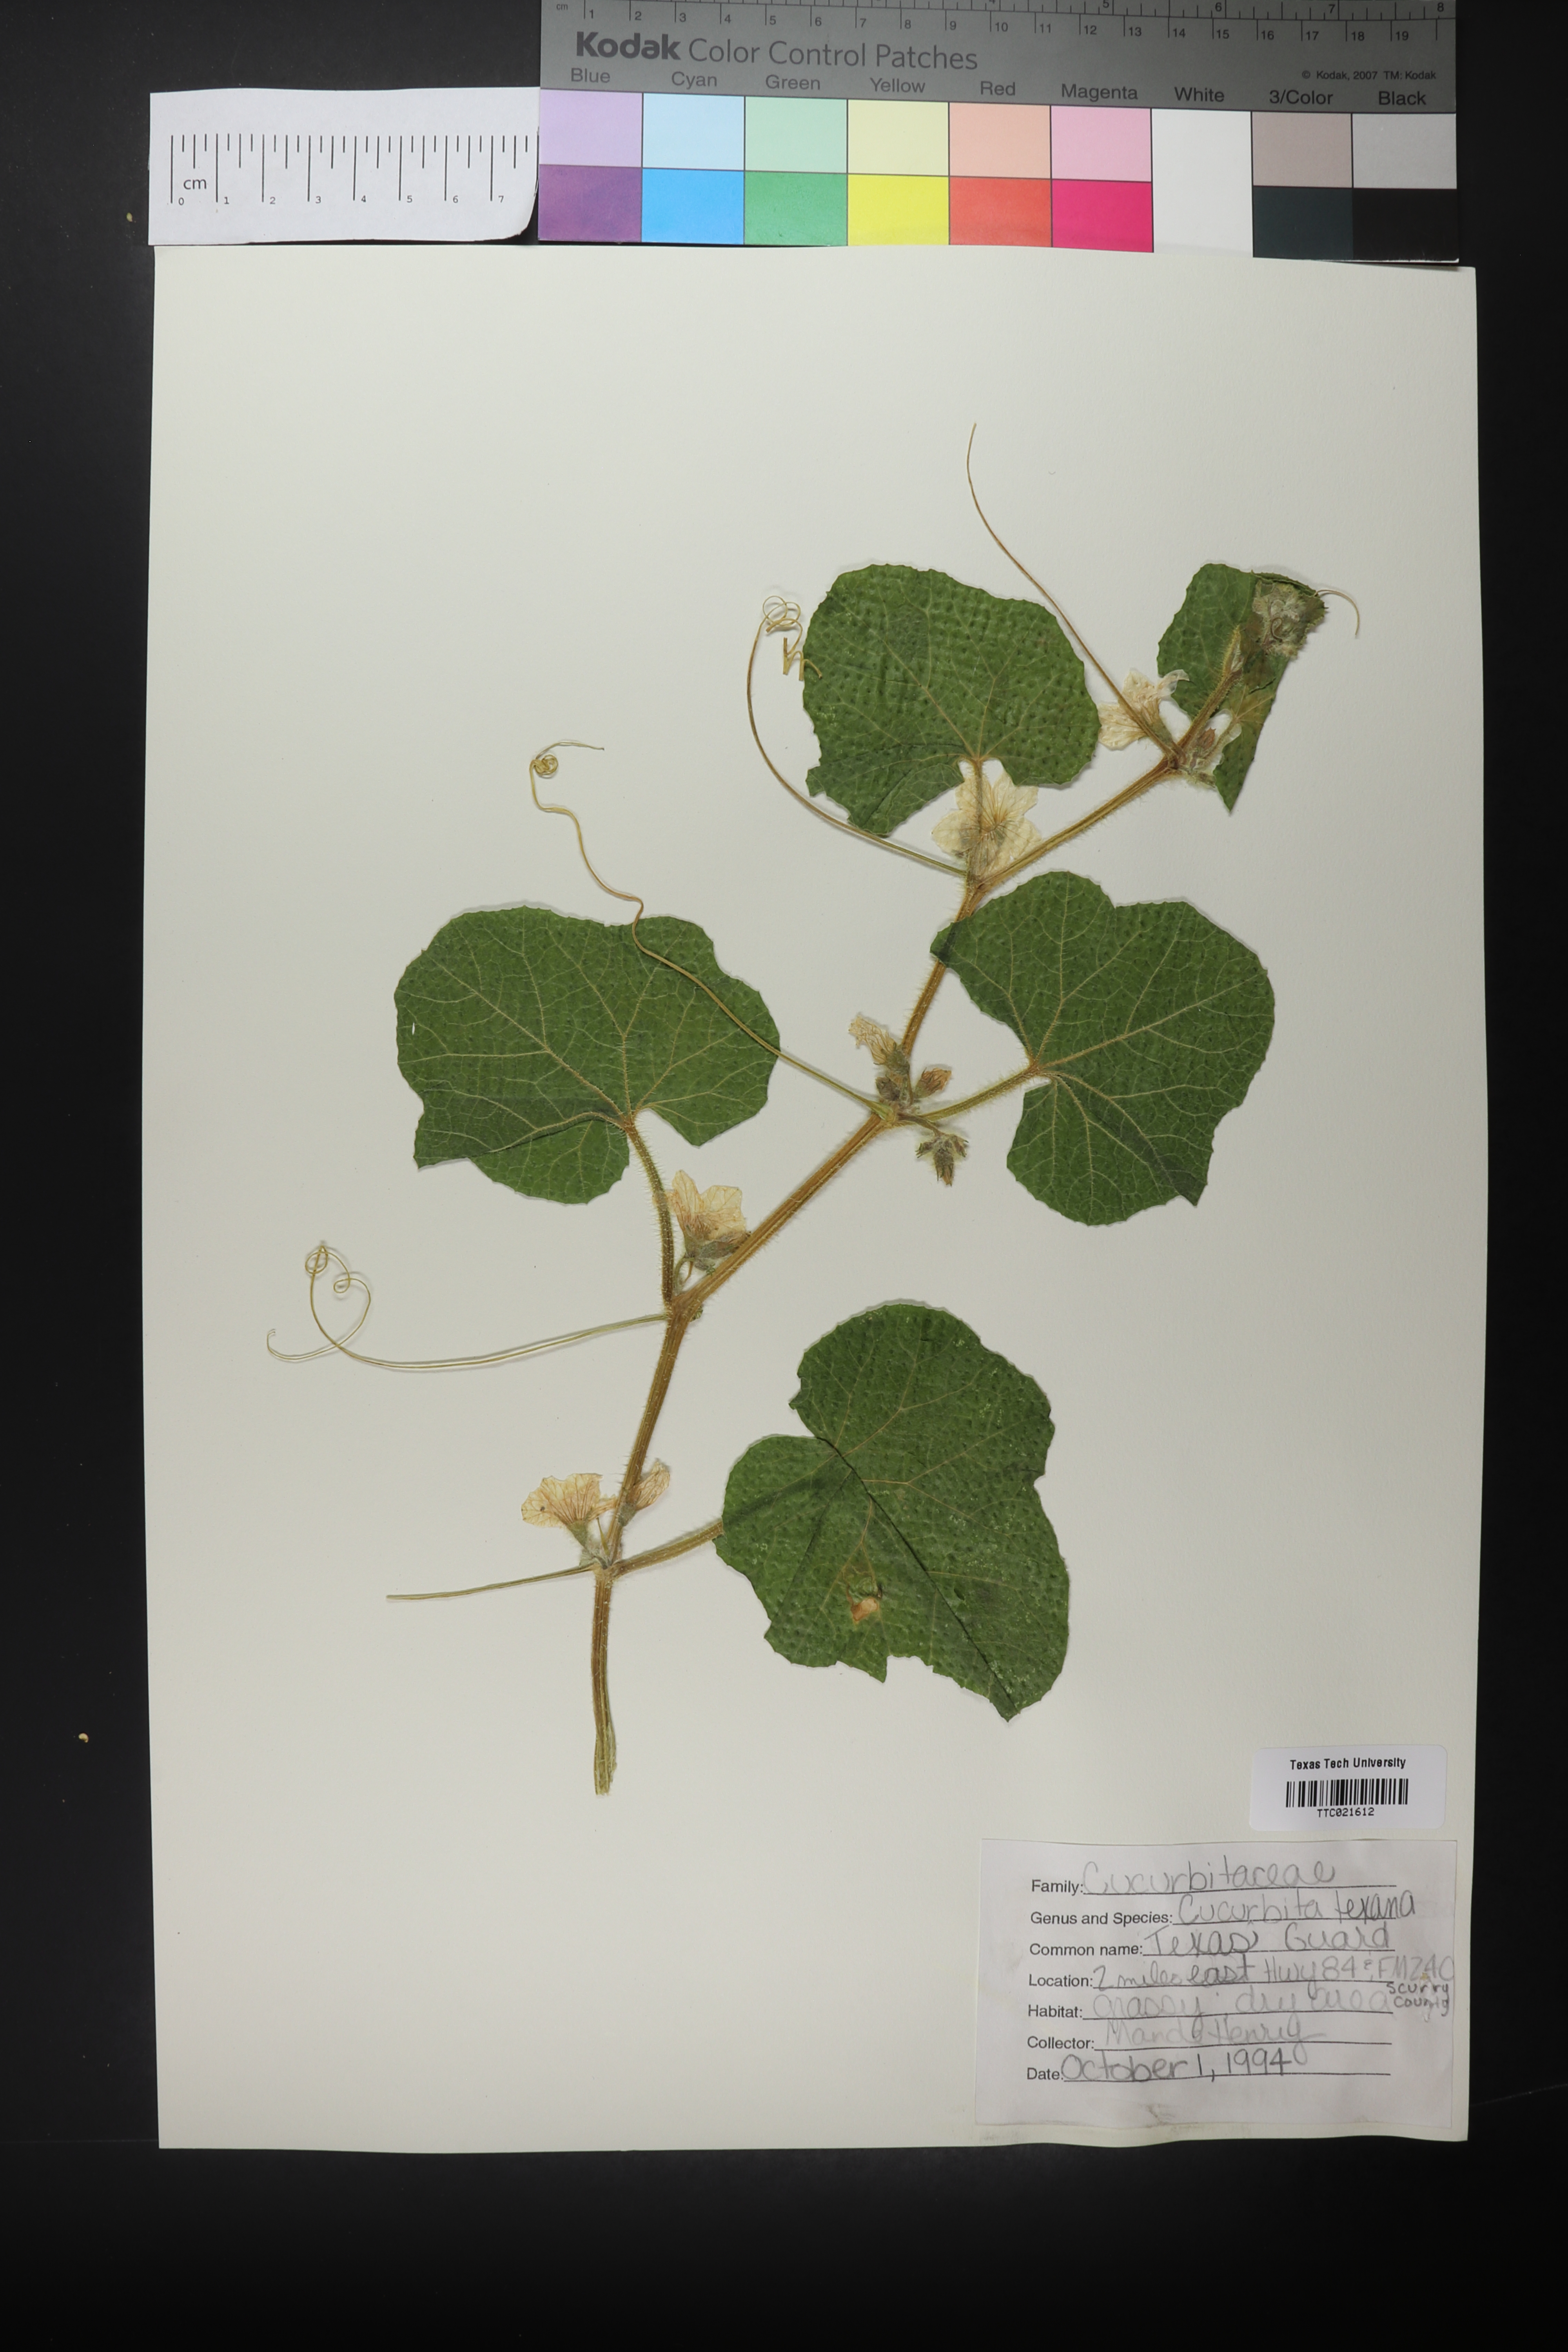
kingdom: Plantae
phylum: Tracheophyta
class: Magnoliopsida
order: Cucurbitales
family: Cucurbitaceae
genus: Cucurbita
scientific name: Cucurbita melopepo
